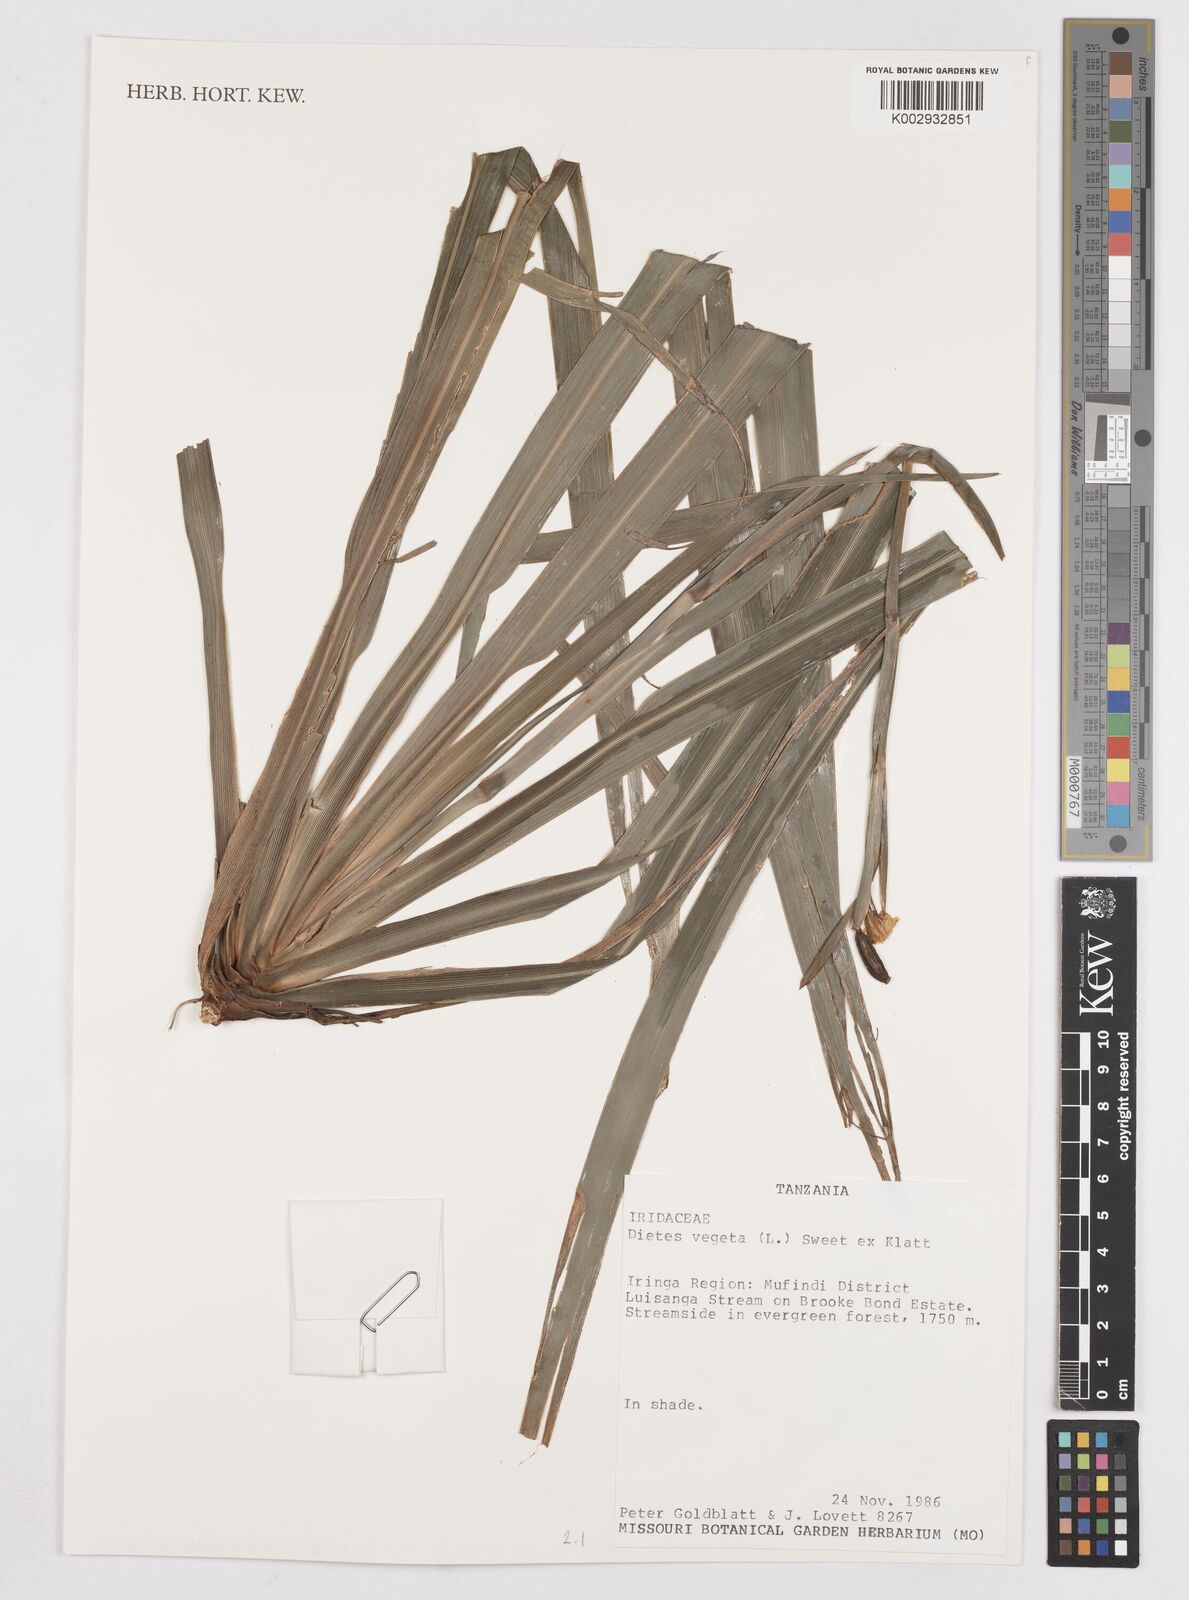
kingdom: Plantae
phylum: Tracheophyta
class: Liliopsida
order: Asparagales
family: Iridaceae
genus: Dietes
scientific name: Dietes iridioides
